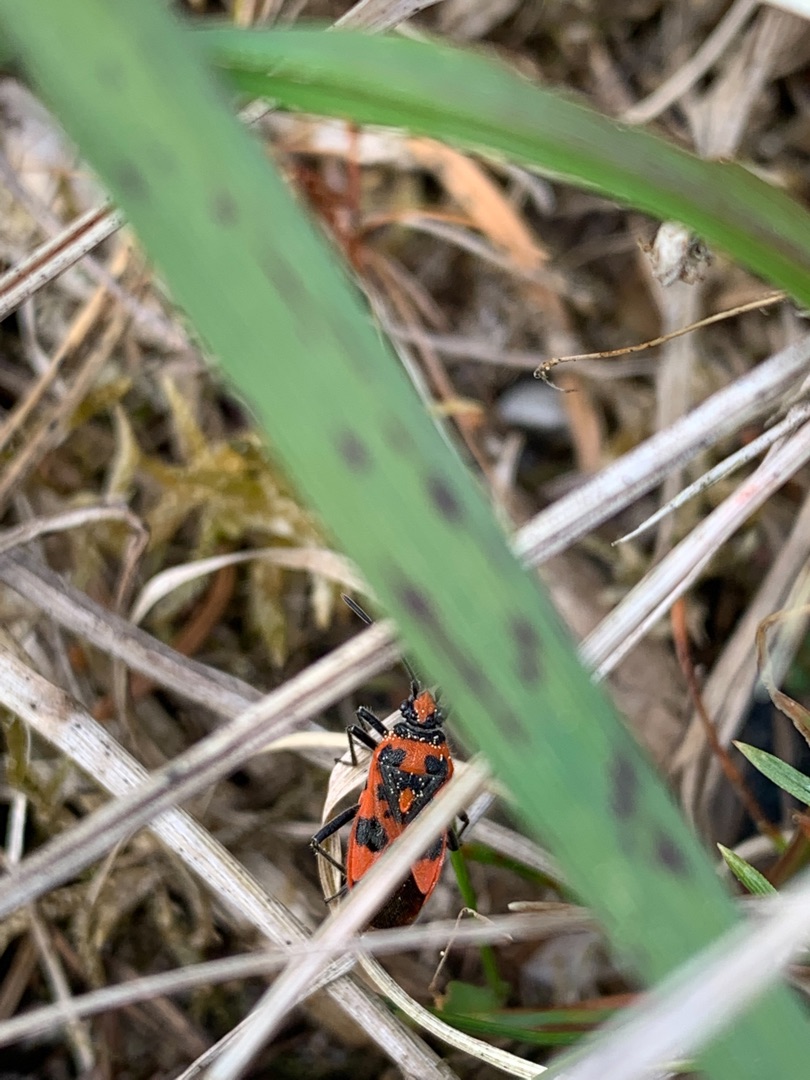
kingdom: Animalia
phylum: Arthropoda
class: Insecta
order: Hemiptera
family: Rhopalidae
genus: Corizus
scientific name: Corizus hyoscyami
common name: Rød kanttæge
